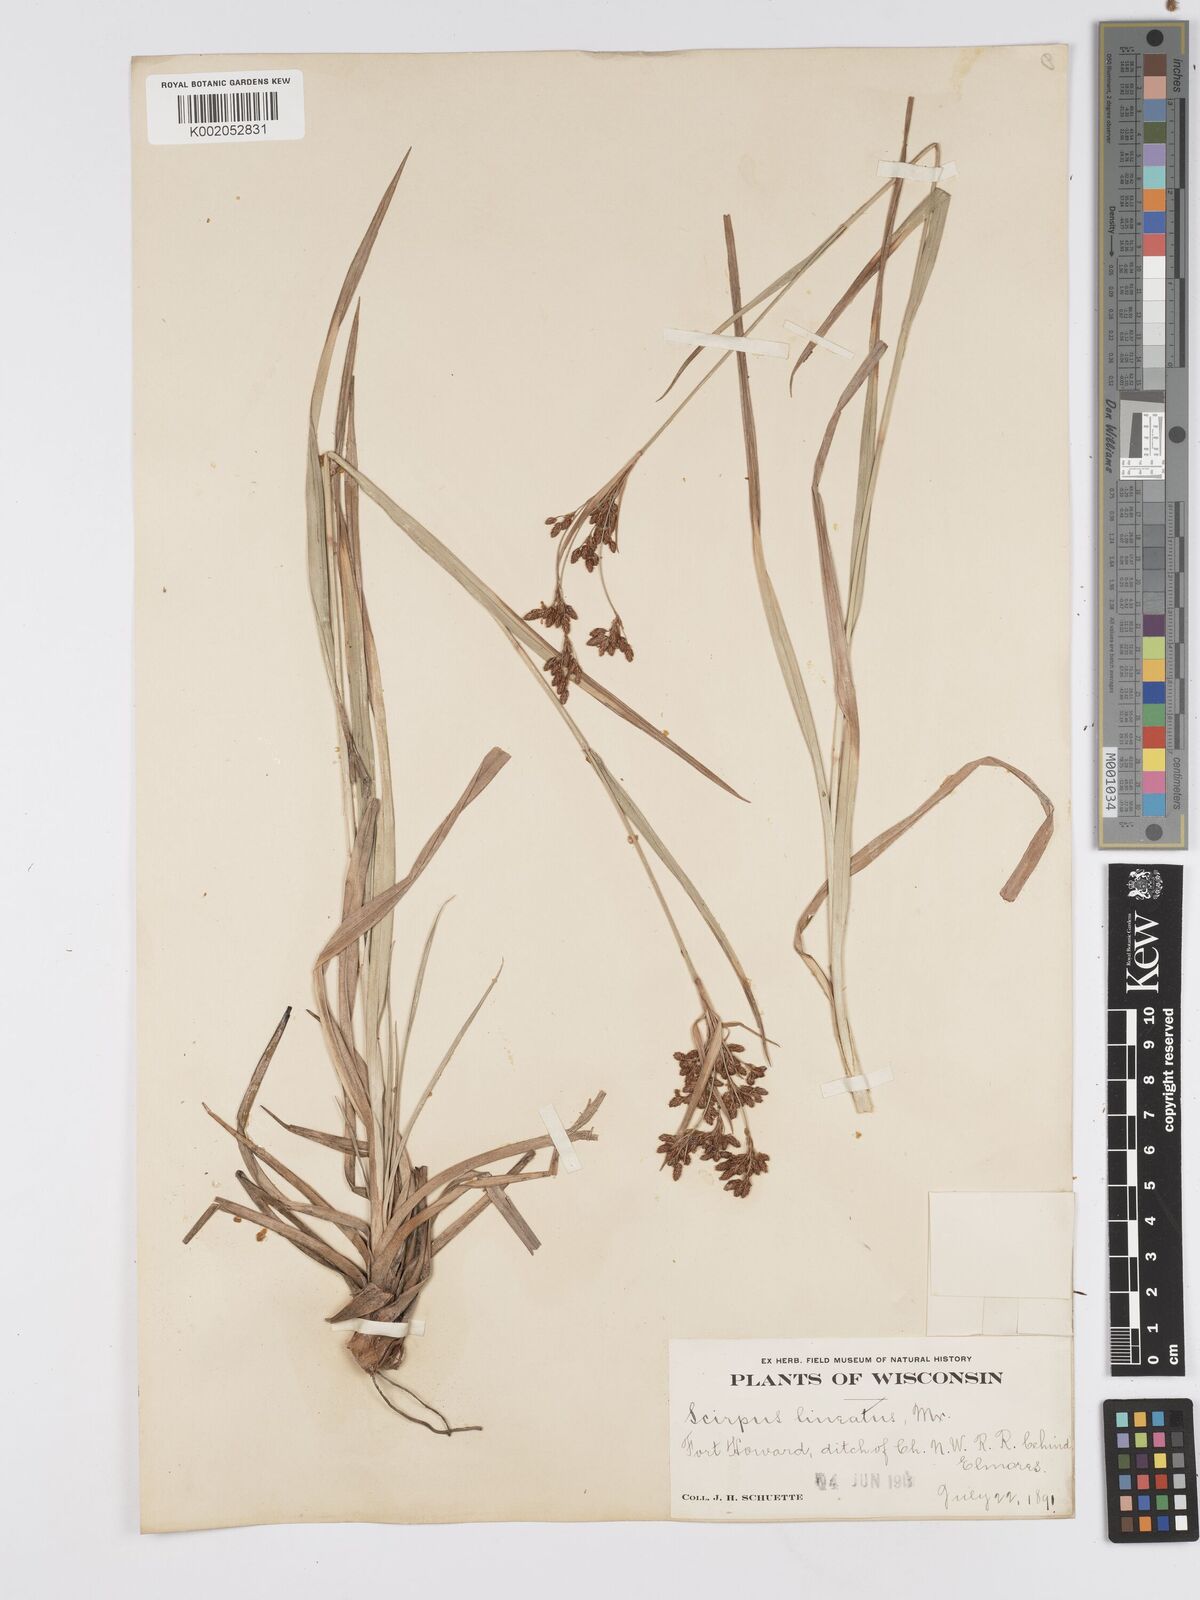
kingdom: Plantae
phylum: Tracheophyta
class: Liliopsida
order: Poales
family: Cyperaceae
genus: Scirpus
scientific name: Scirpus lineatus
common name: Drooping bulrush
